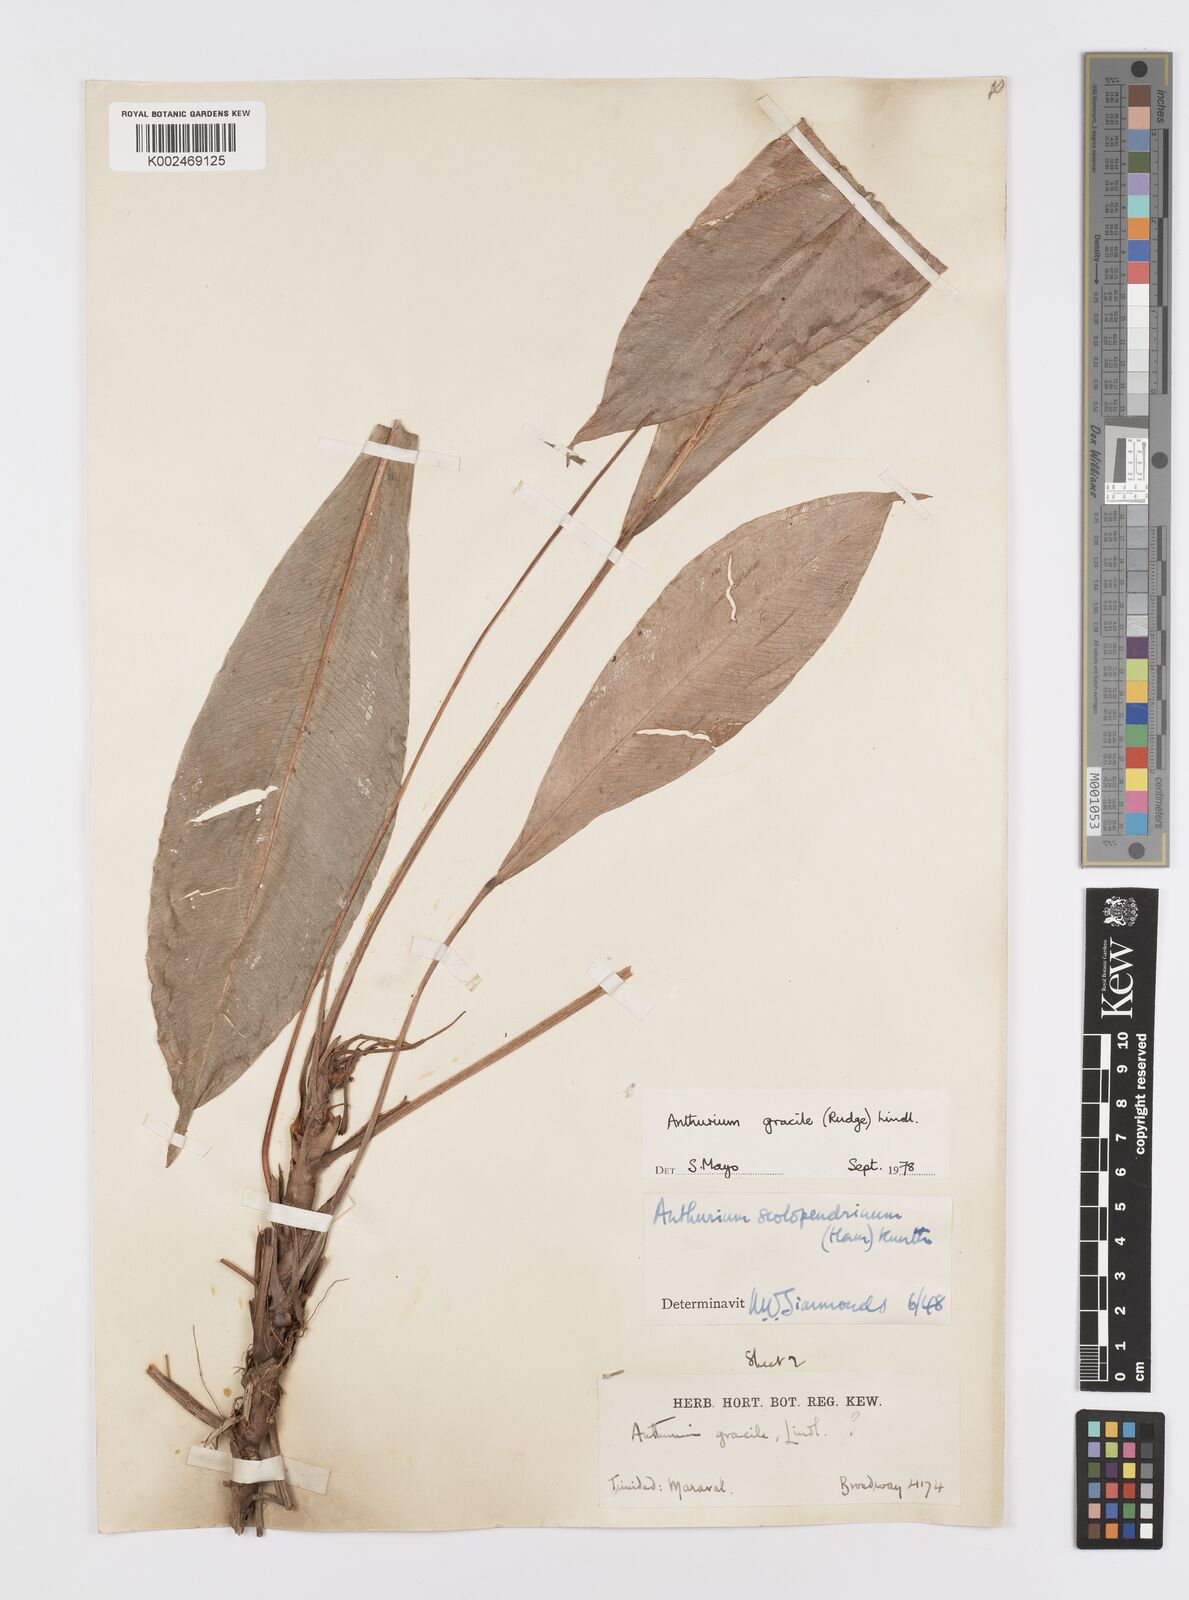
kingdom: Plantae
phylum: Tracheophyta
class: Liliopsida
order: Alismatales
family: Araceae
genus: Anthurium
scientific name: Anthurium gracile
